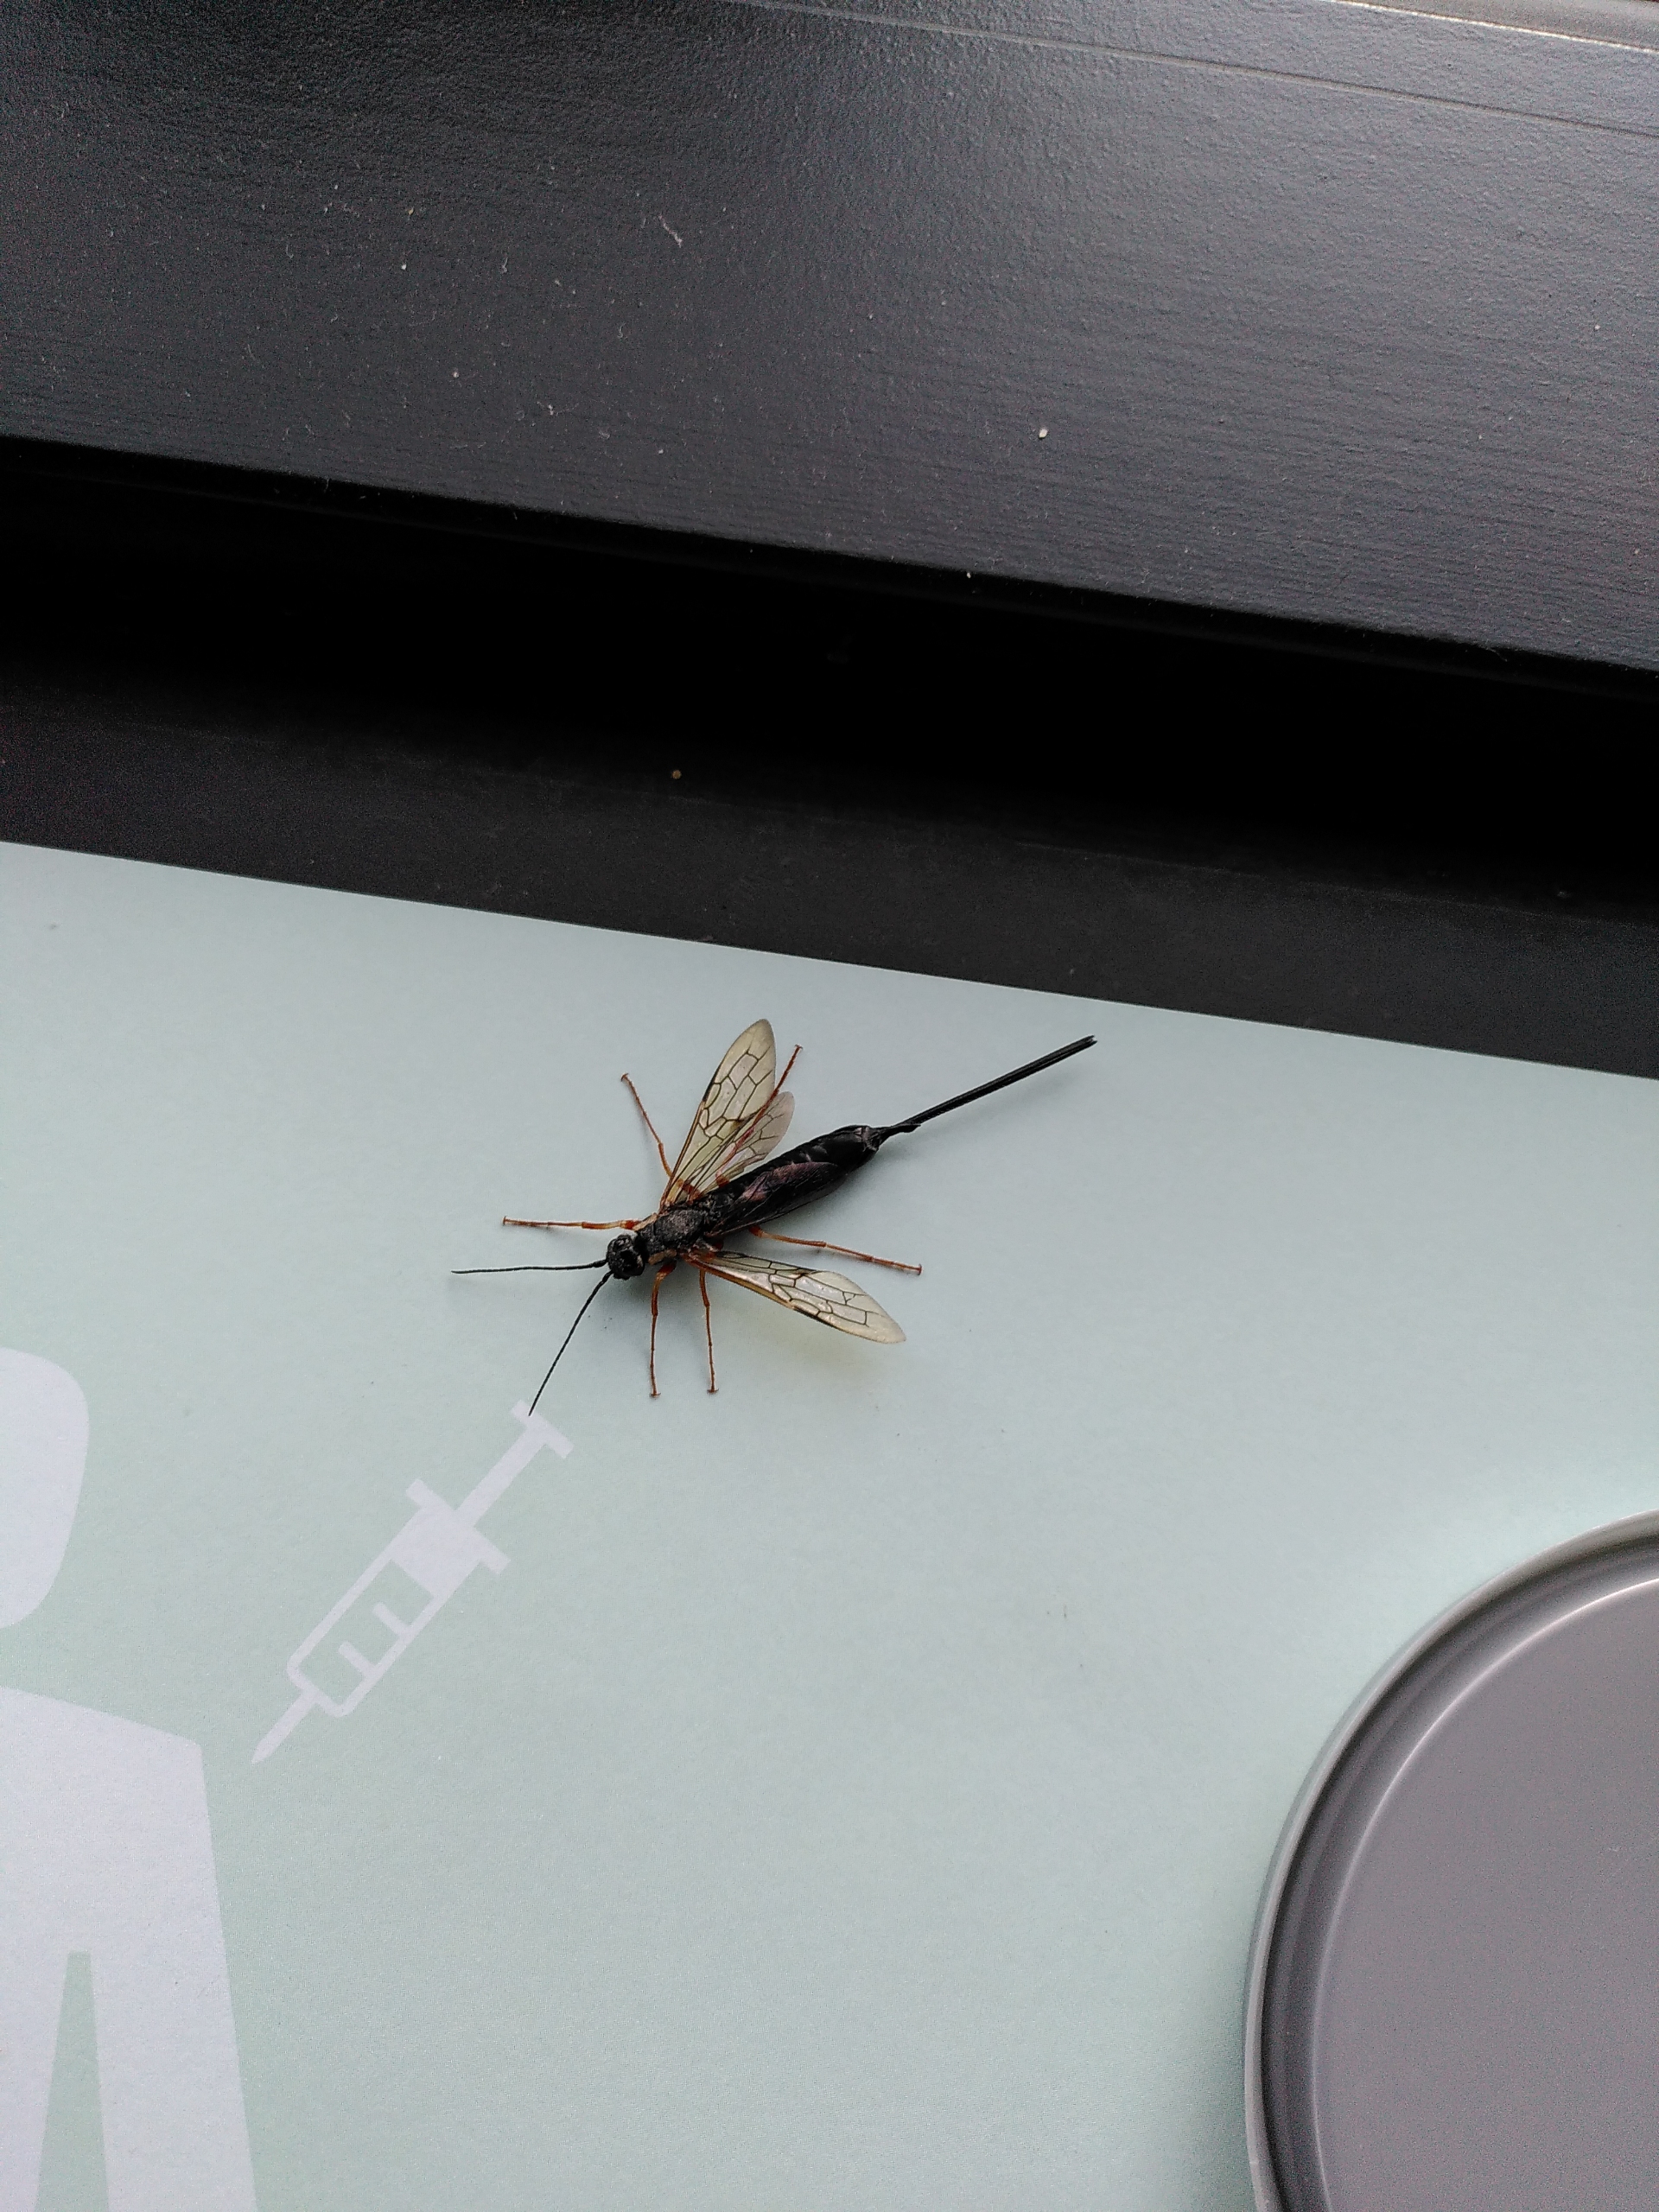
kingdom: Animalia
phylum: Arthropoda
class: Insecta
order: Hymenoptera
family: Siricidae
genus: Xeris
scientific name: Xeris
